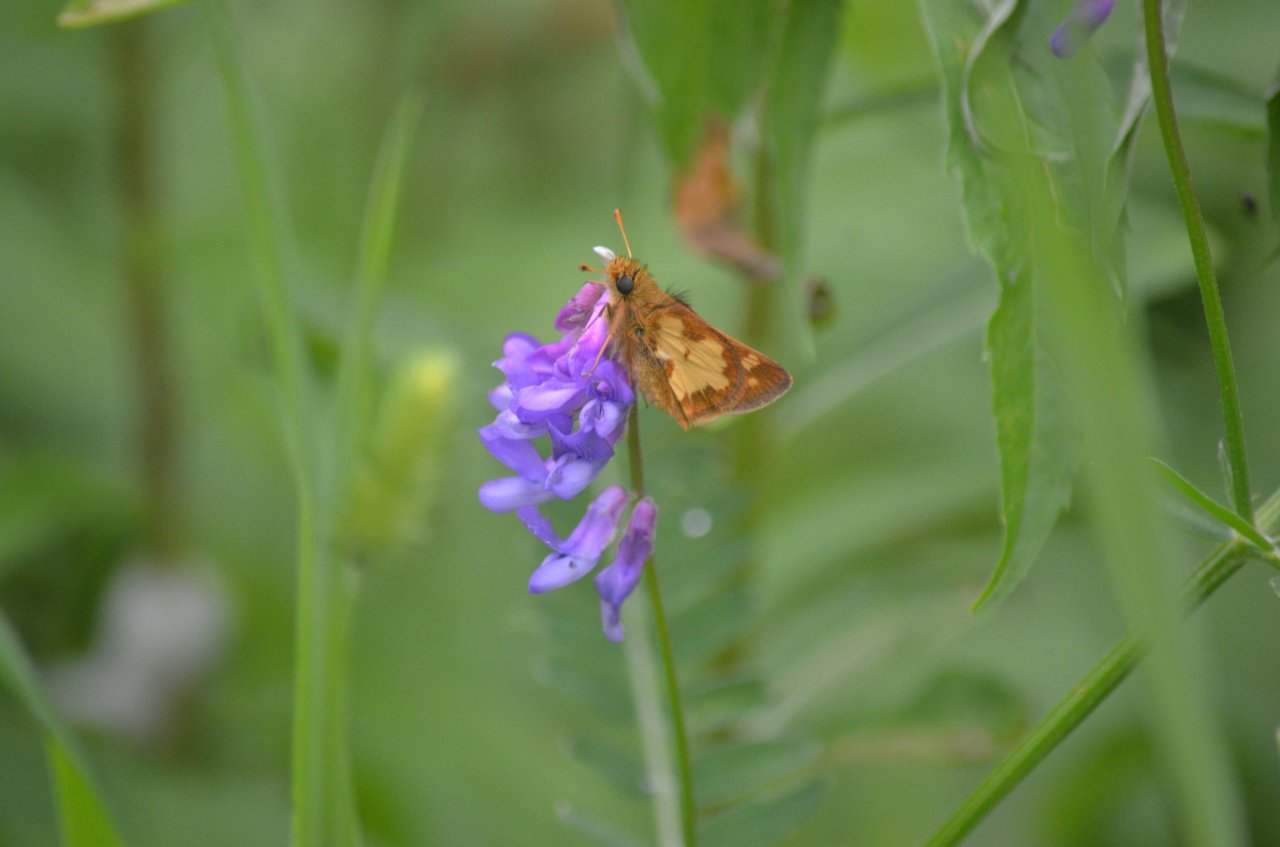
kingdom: Animalia
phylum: Arthropoda
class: Insecta
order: Lepidoptera
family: Hesperiidae
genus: Polites
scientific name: Polites coras
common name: Peck's Skipper
